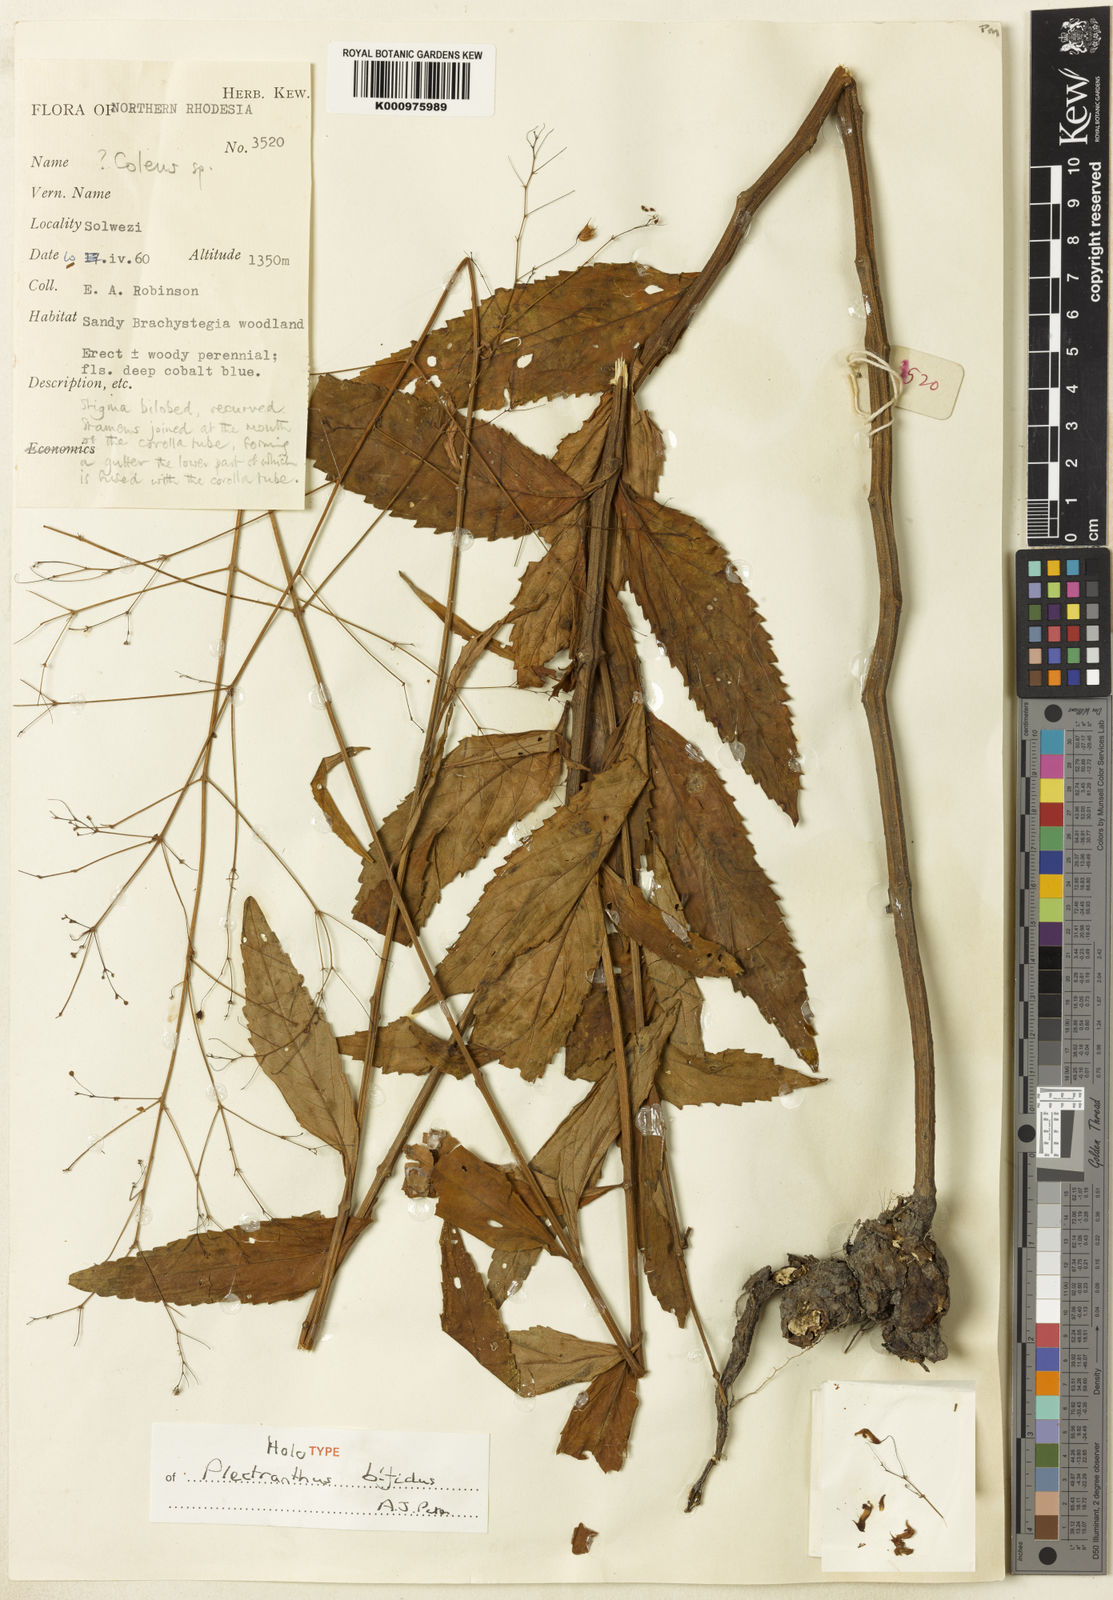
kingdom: Plantae
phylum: Tracheophyta
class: Magnoliopsida
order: Lamiales
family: Lamiaceae
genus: Coleus
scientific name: Coleus bifidus
